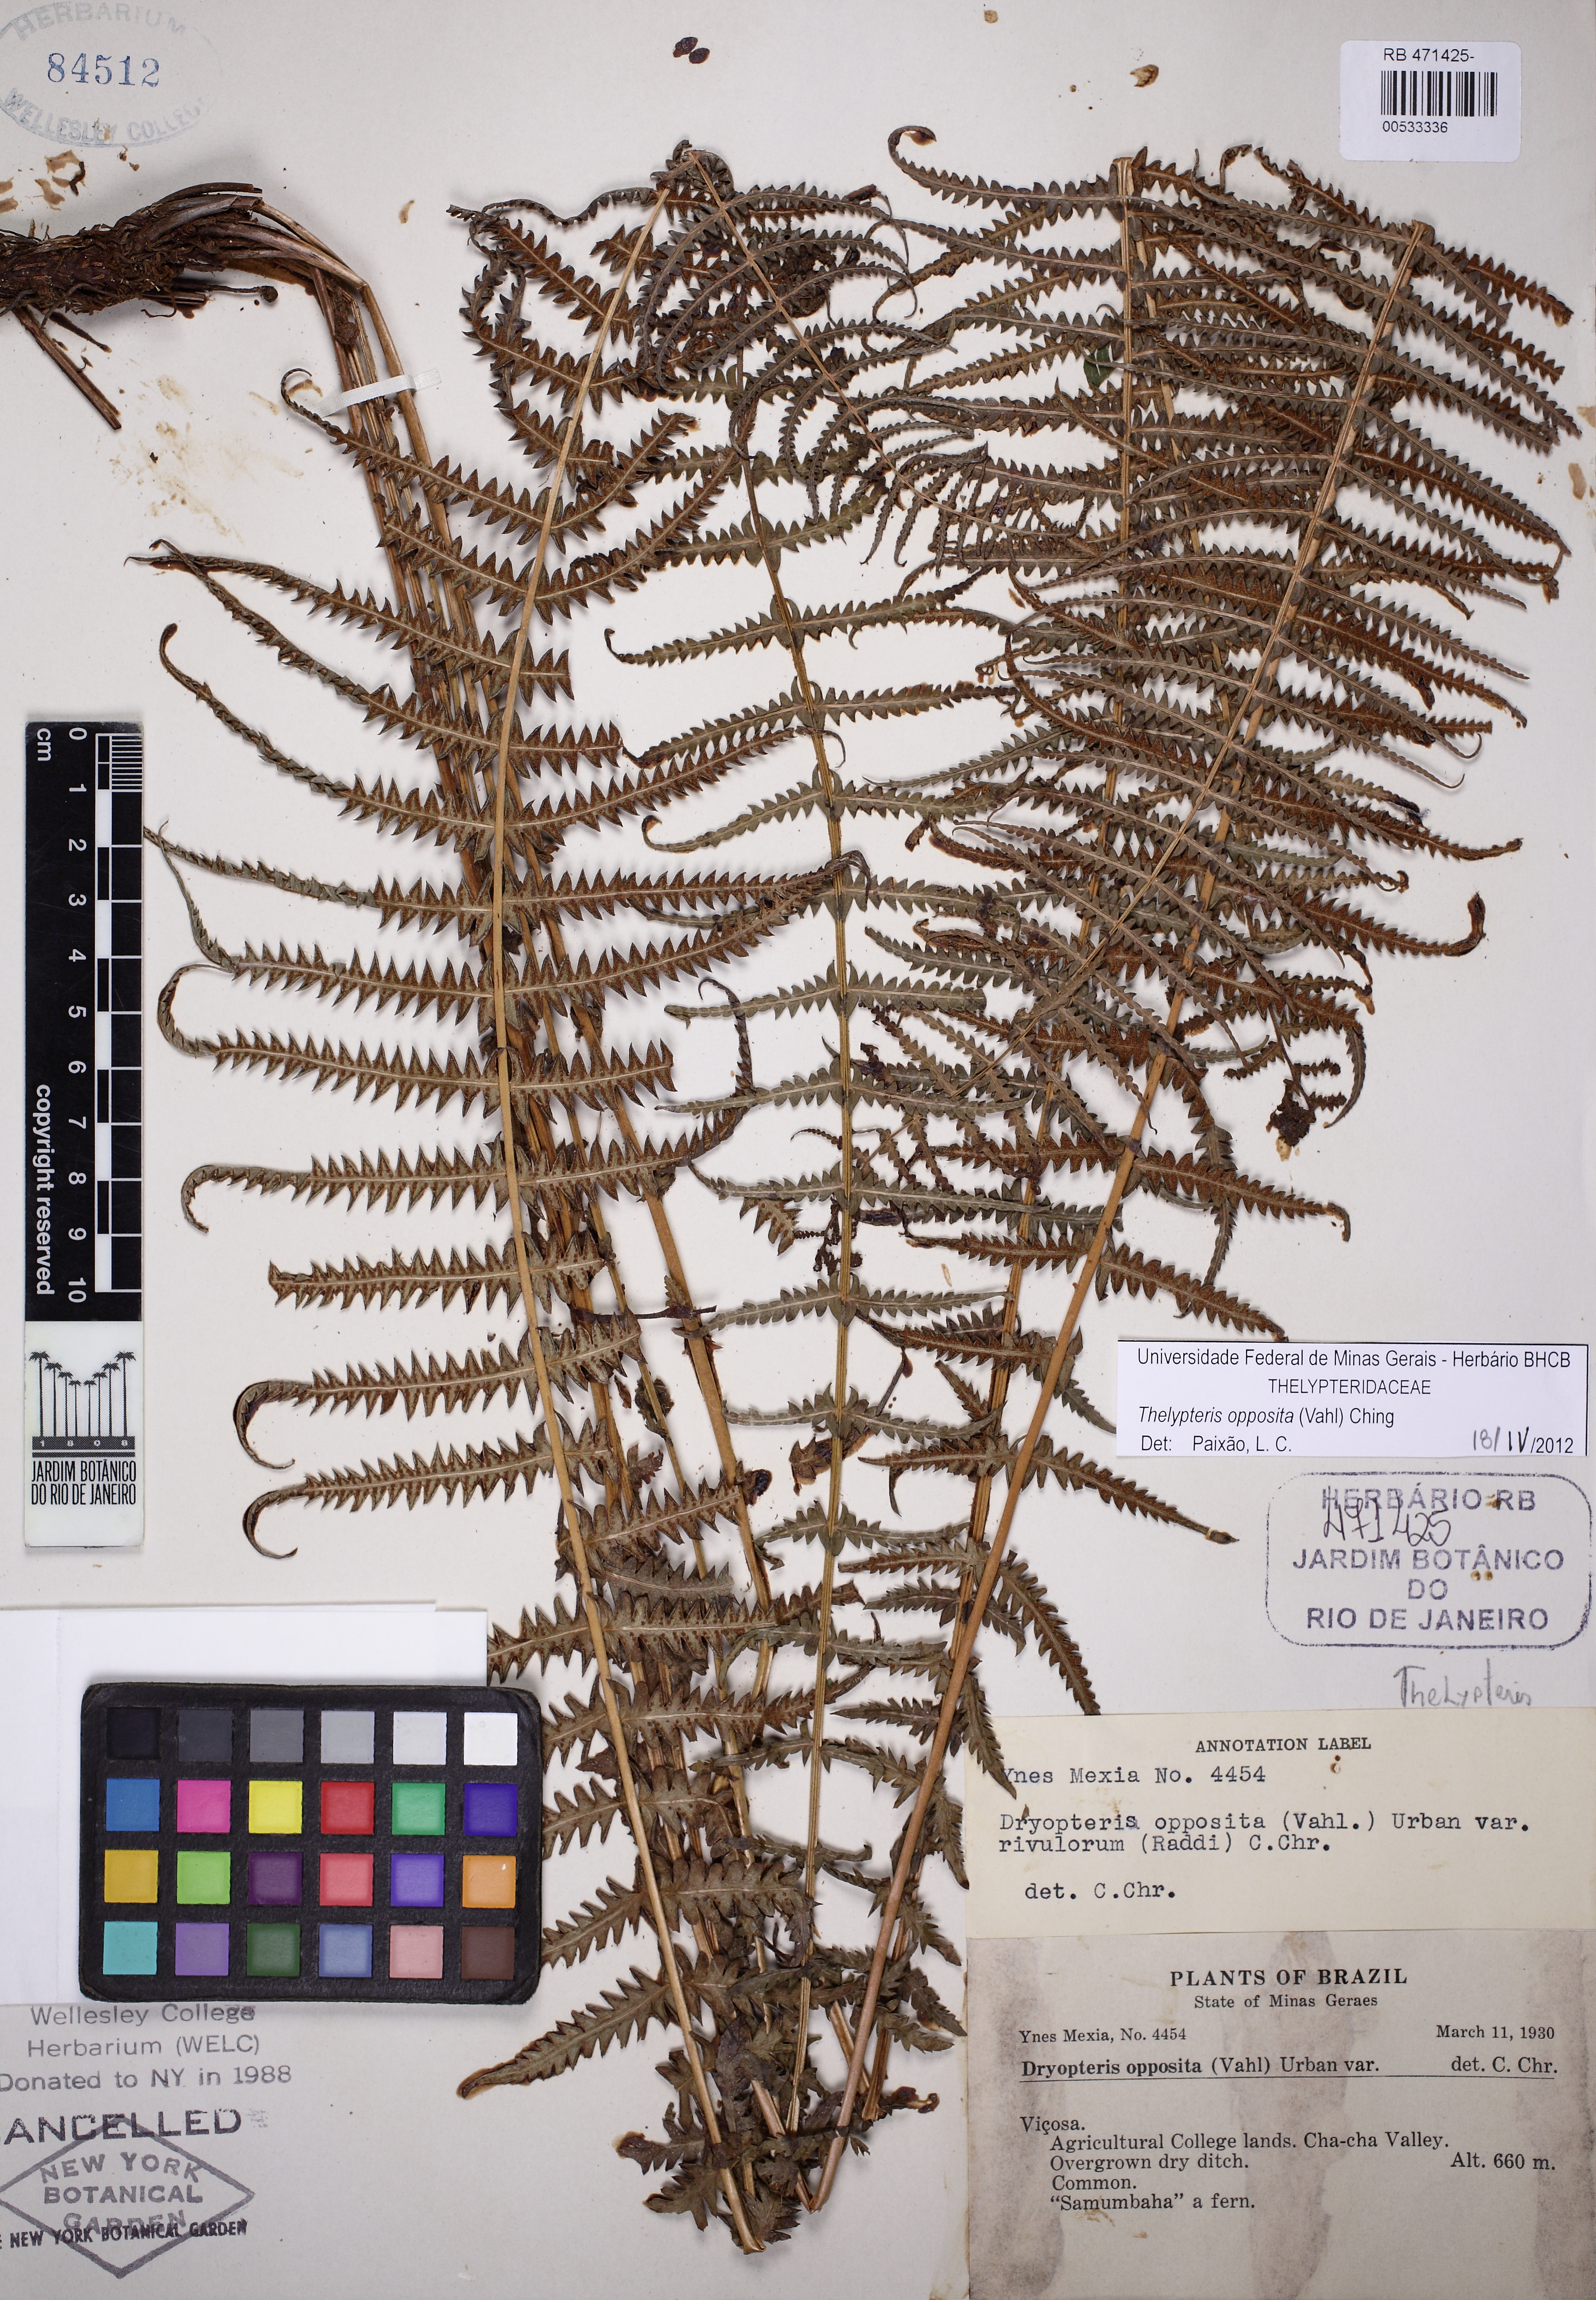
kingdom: Plantae
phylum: Tracheophyta
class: Polypodiopsida
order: Polypodiales
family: Thelypteridaceae
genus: Amauropelta
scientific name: Amauropelta opposita
